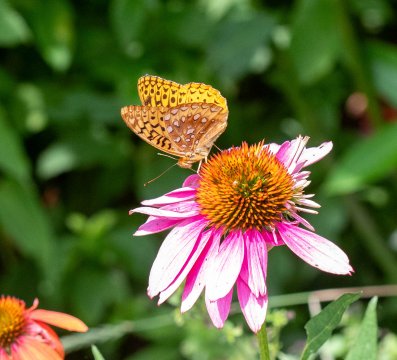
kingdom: Animalia
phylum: Arthropoda
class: Insecta
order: Lepidoptera
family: Nymphalidae
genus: Speyeria
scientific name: Speyeria cybele
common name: Great Spangled Fritillary
